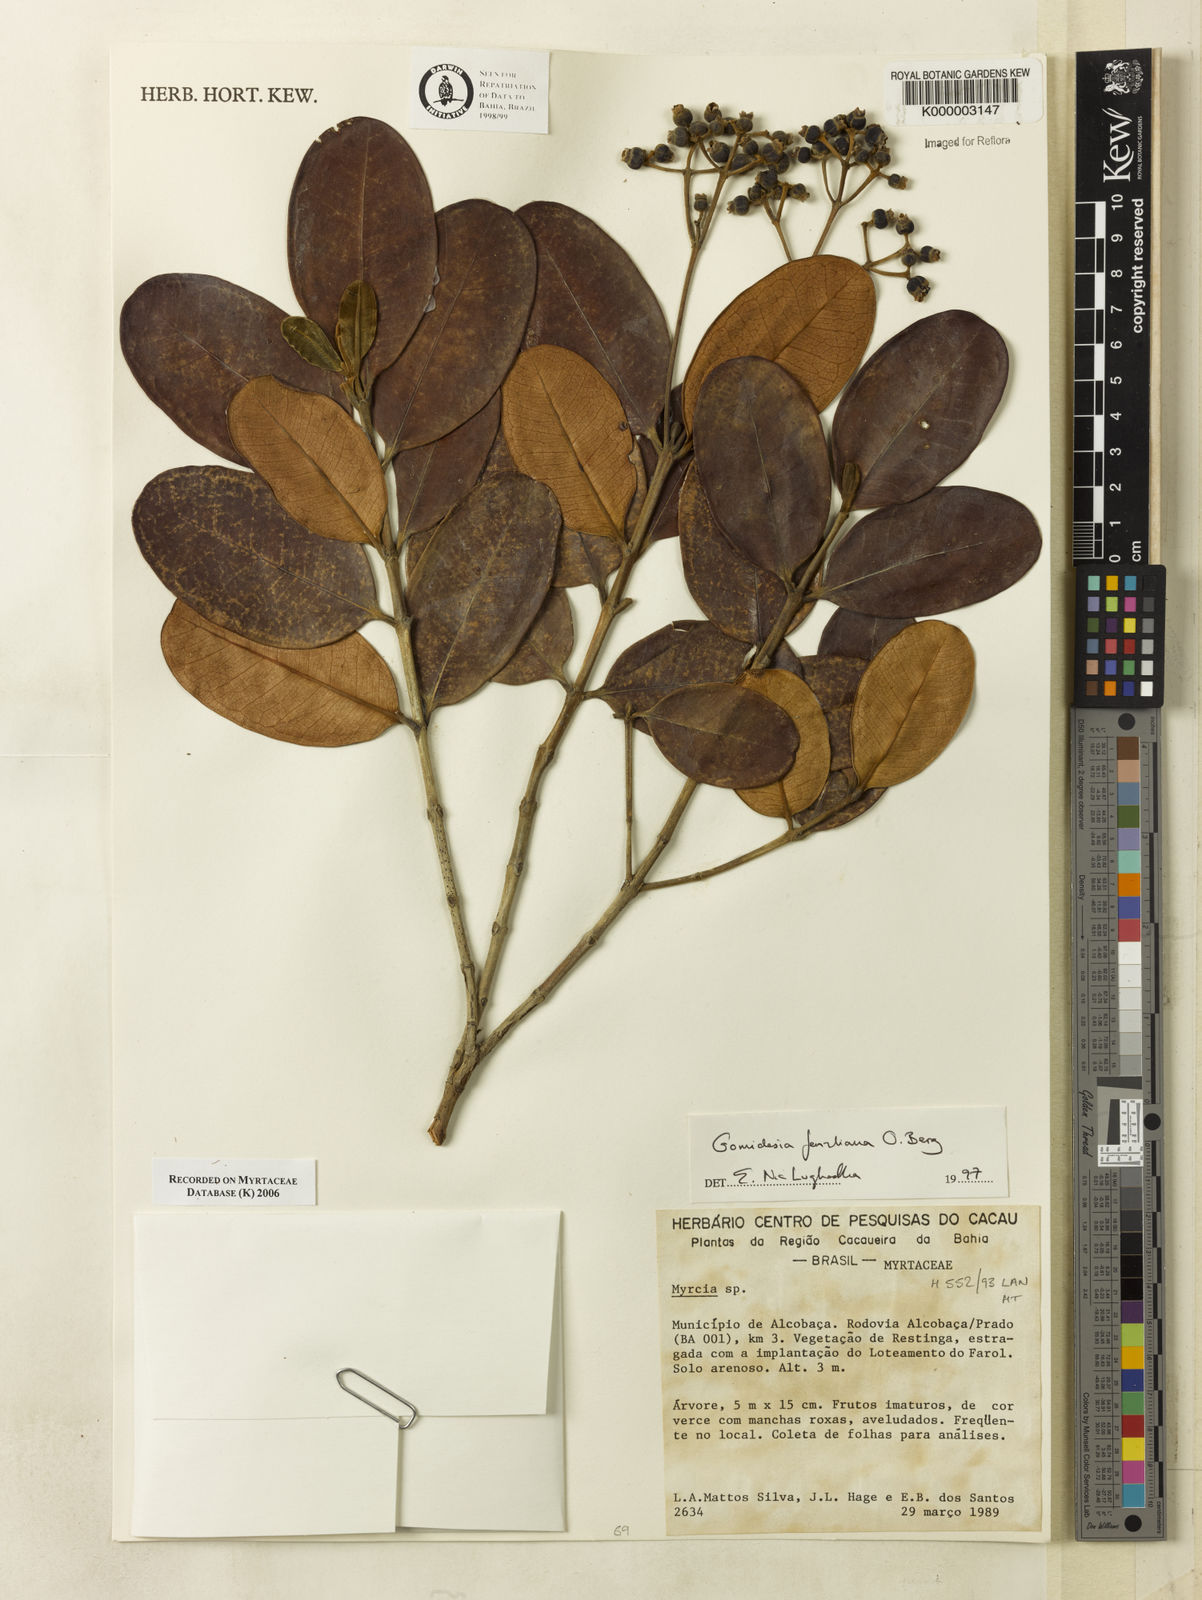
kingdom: Plantae
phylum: Tracheophyta
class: Magnoliopsida
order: Myrtales
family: Myrtaceae
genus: Myrcia
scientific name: Myrcia ilheosensis
